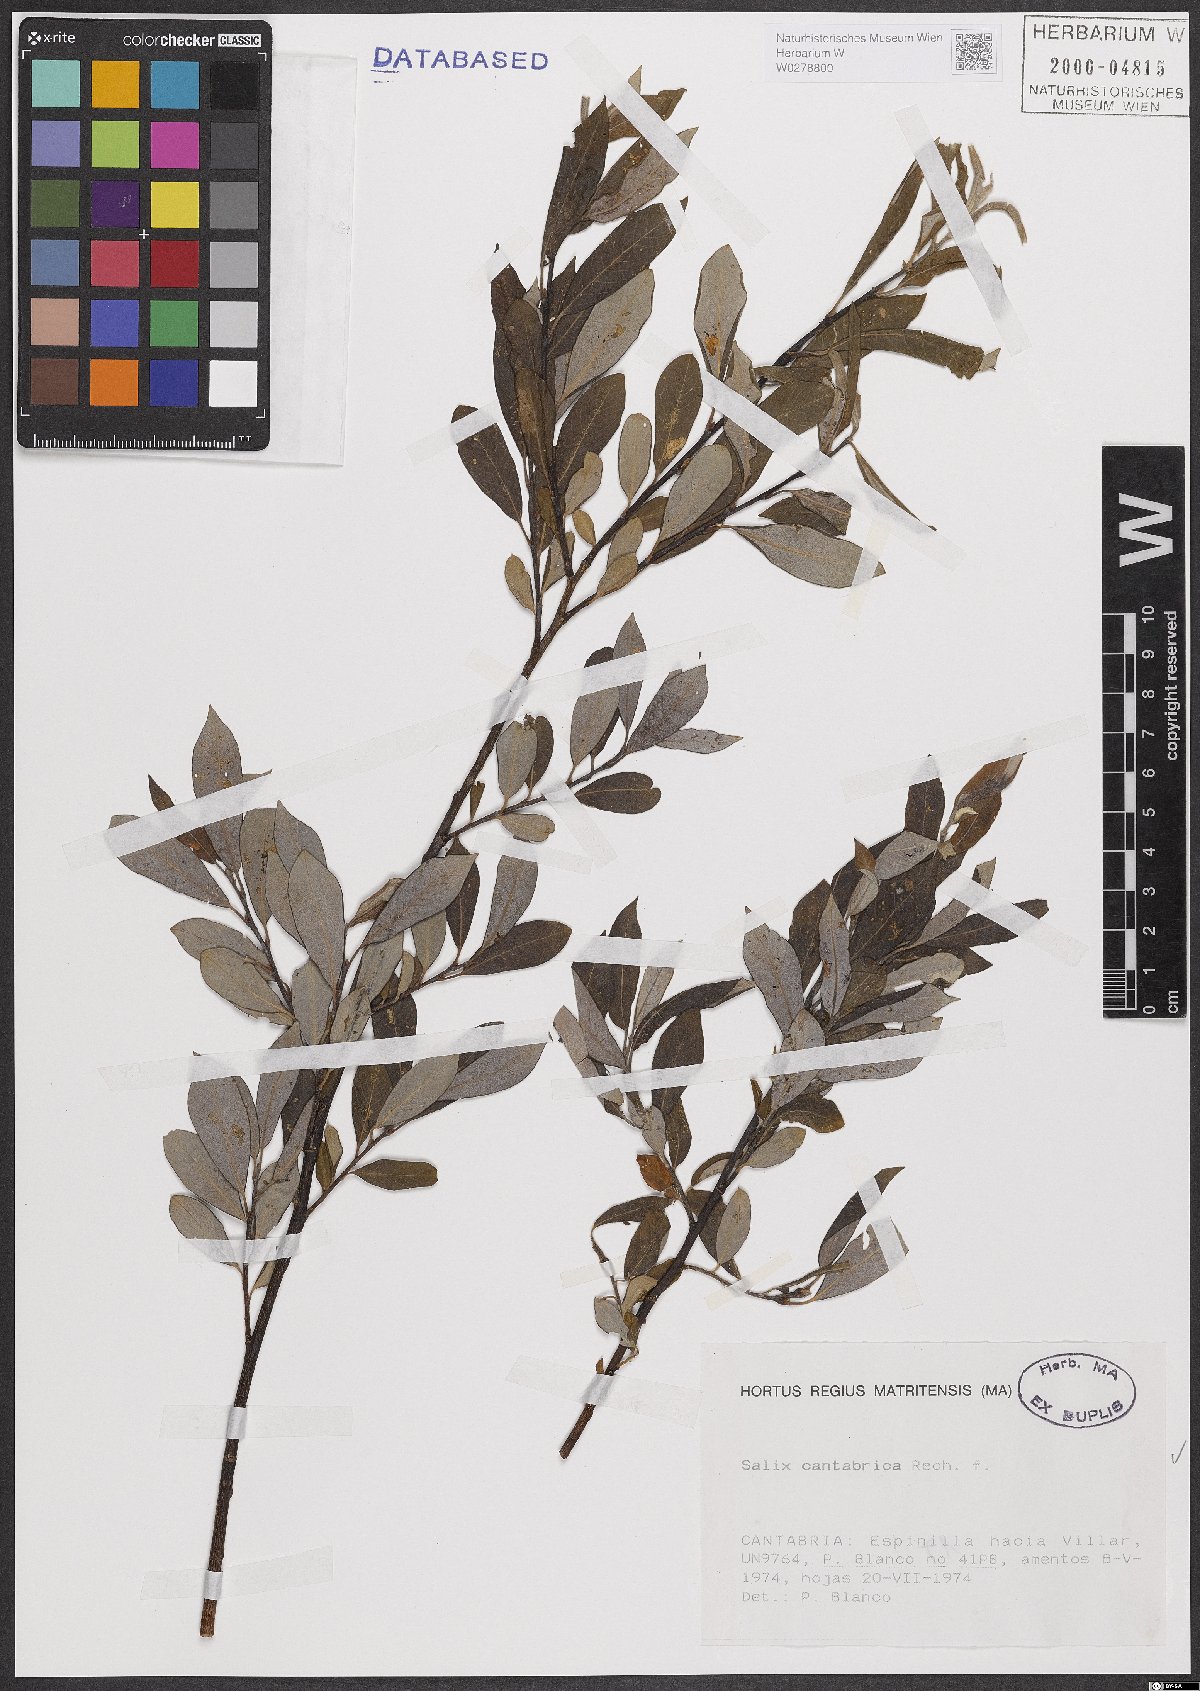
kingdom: Plantae
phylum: Tracheophyta
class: Magnoliopsida
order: Malpighiales
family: Salicaceae
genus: Salix
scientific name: Salix cantabrica
